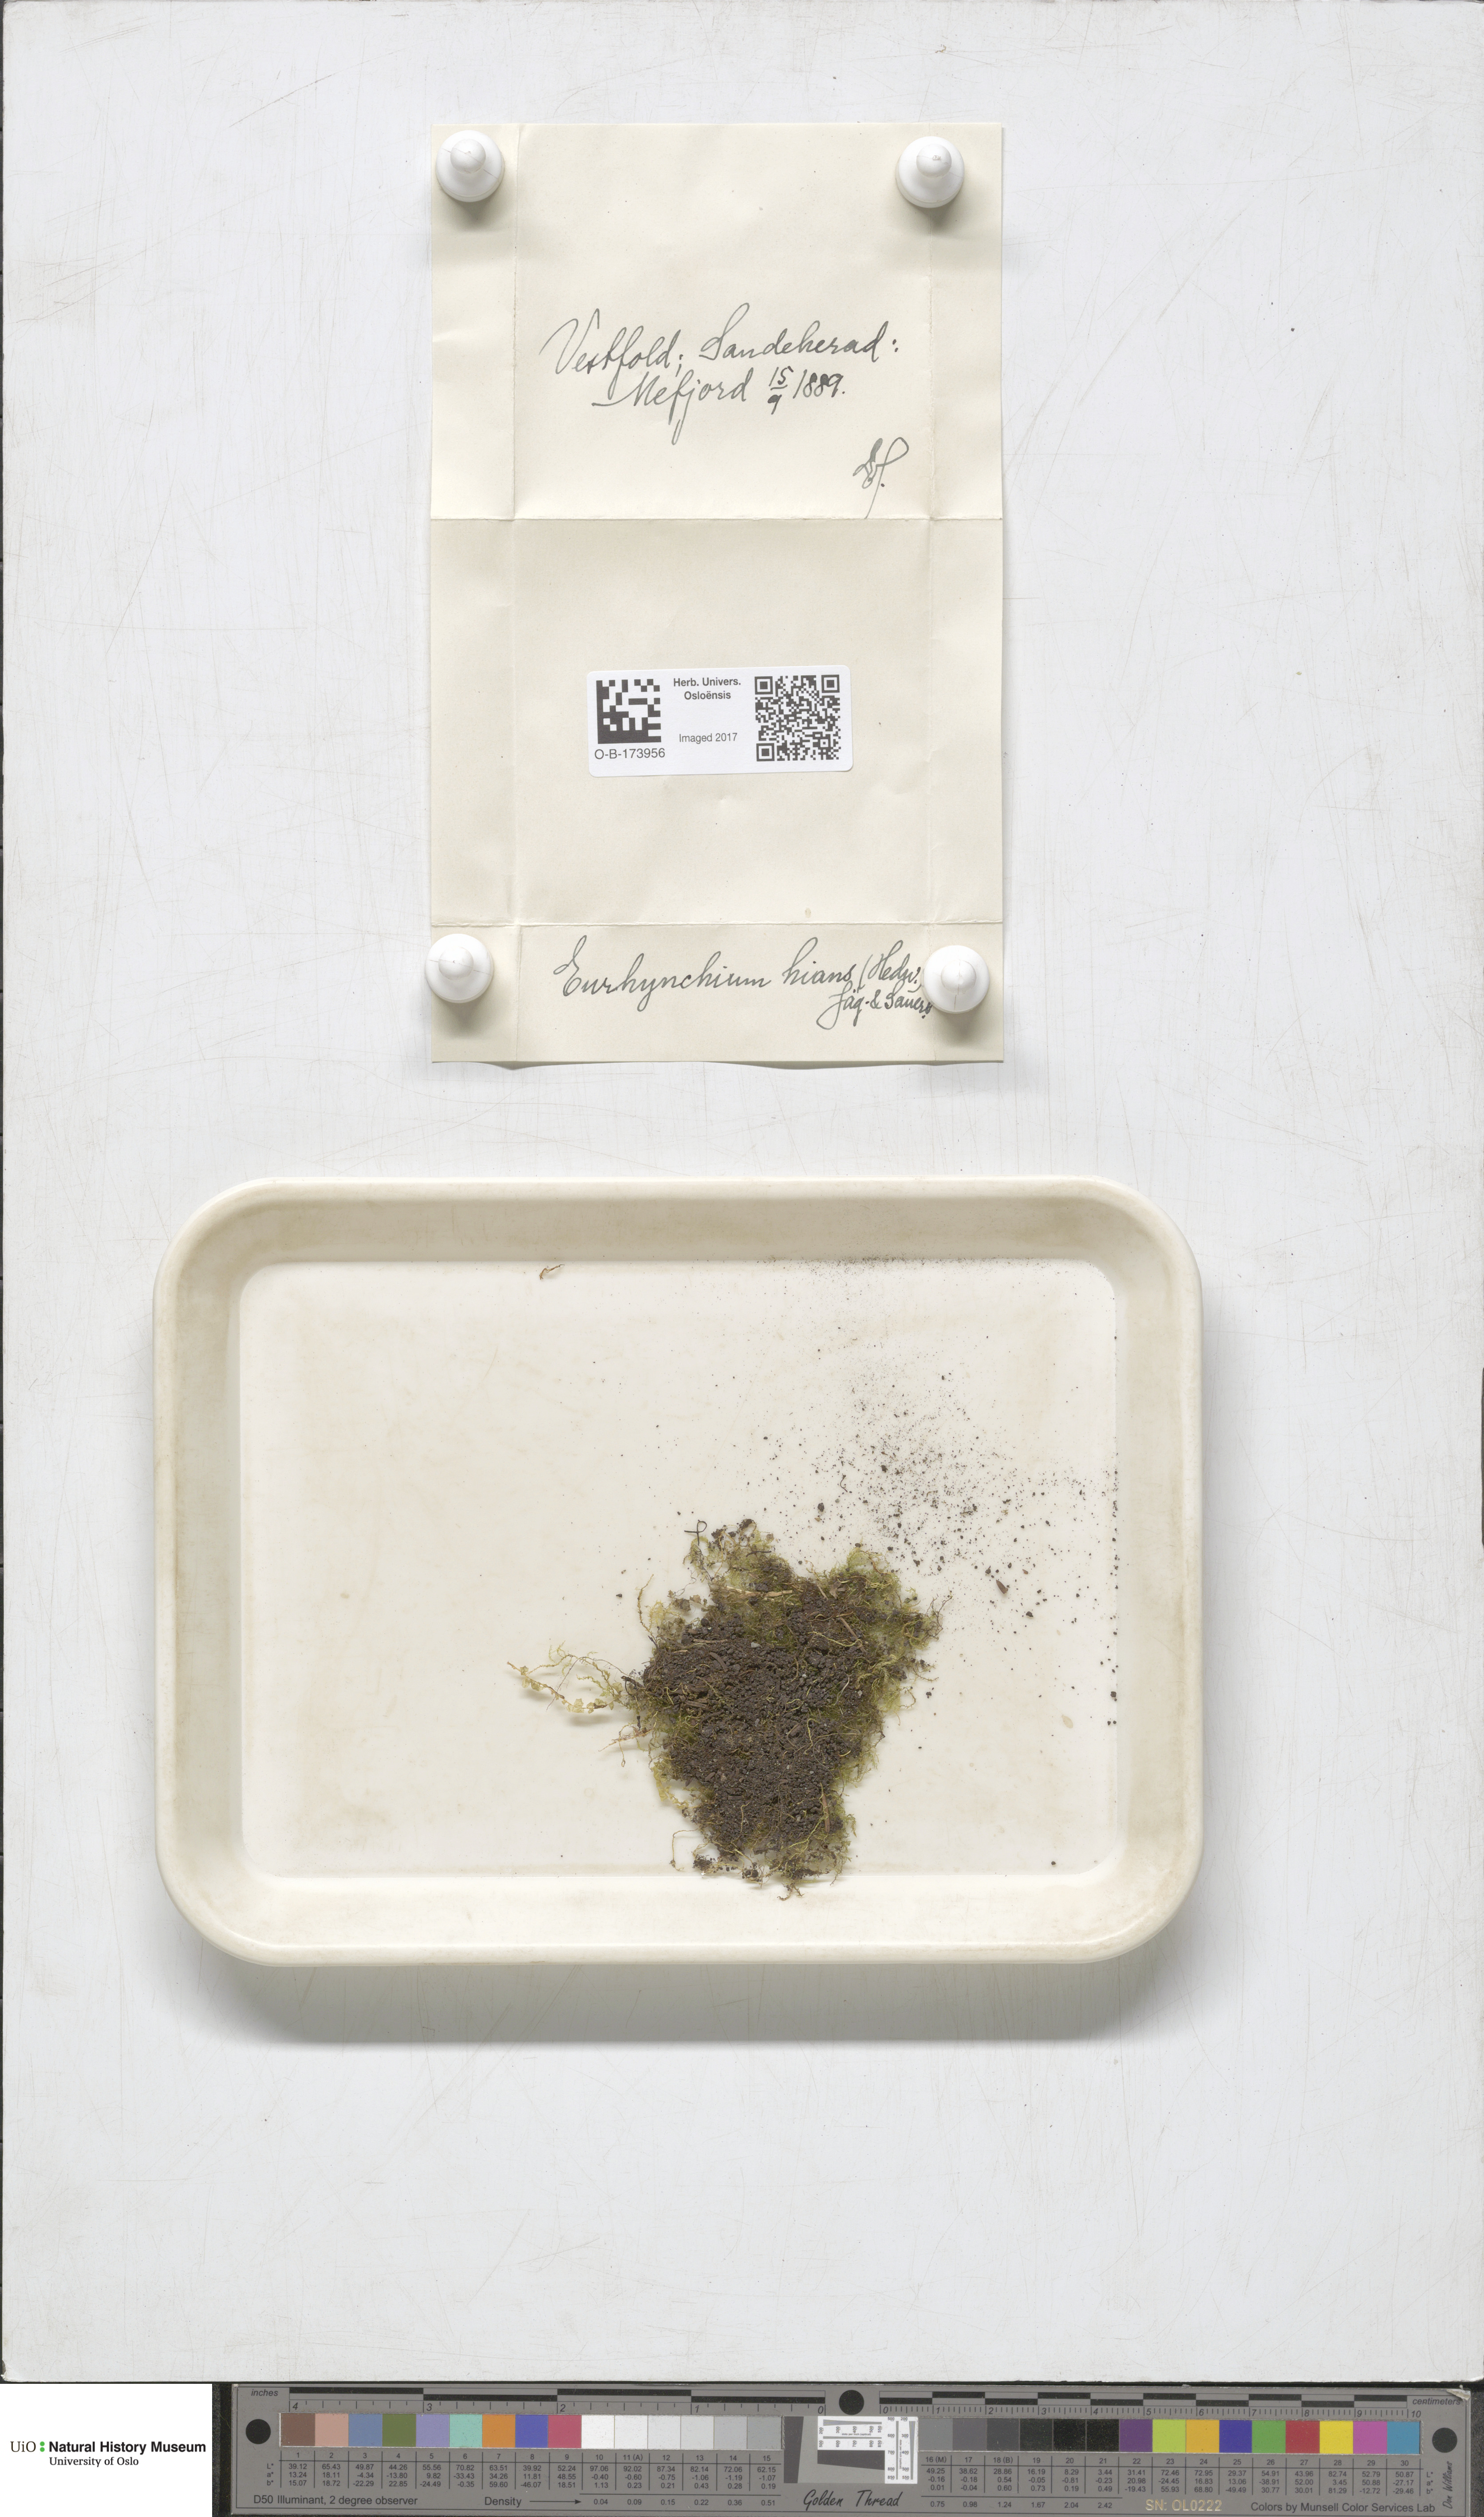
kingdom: Plantae
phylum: Bryophyta
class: Bryopsida
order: Hypnales
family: Brachytheciaceae
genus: Oxyrrhynchium
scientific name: Oxyrrhynchium hians
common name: Spreading beaked moss
